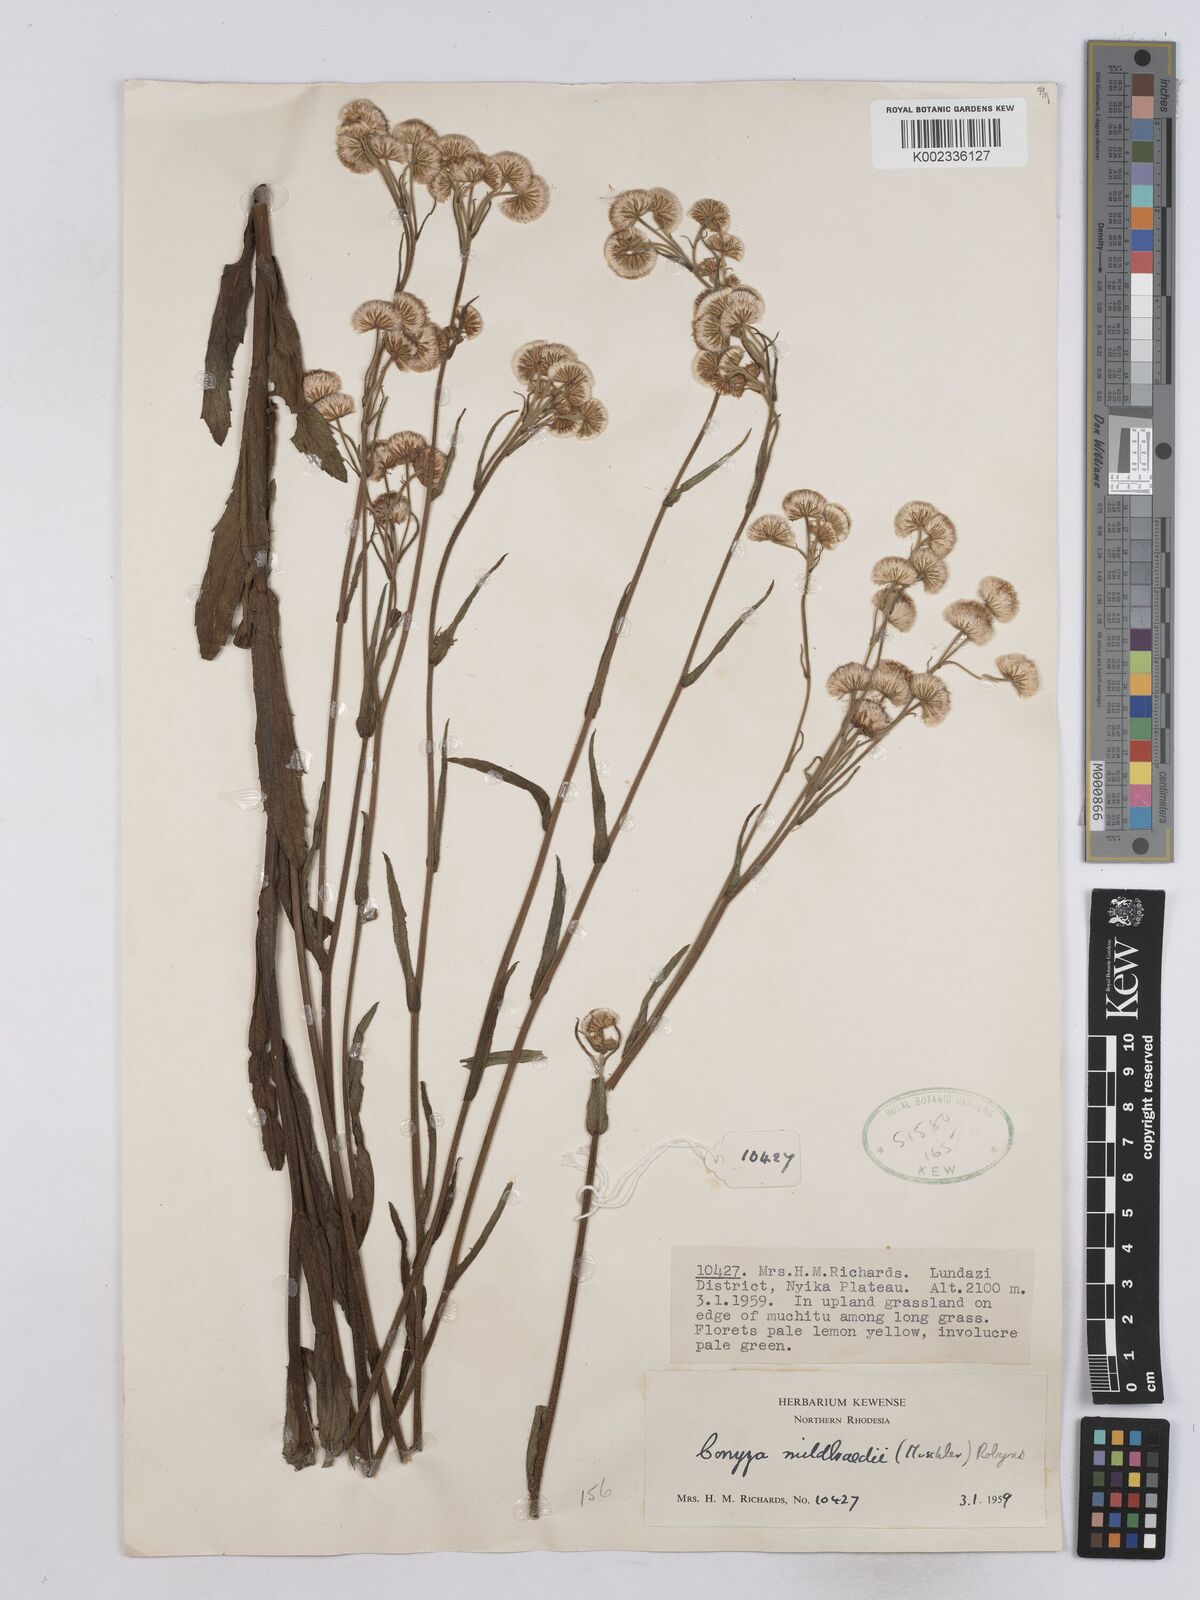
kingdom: Plantae
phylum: Tracheophyta
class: Magnoliopsida
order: Asterales
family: Asteraceae
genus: Conyza
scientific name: Conyza limosa
